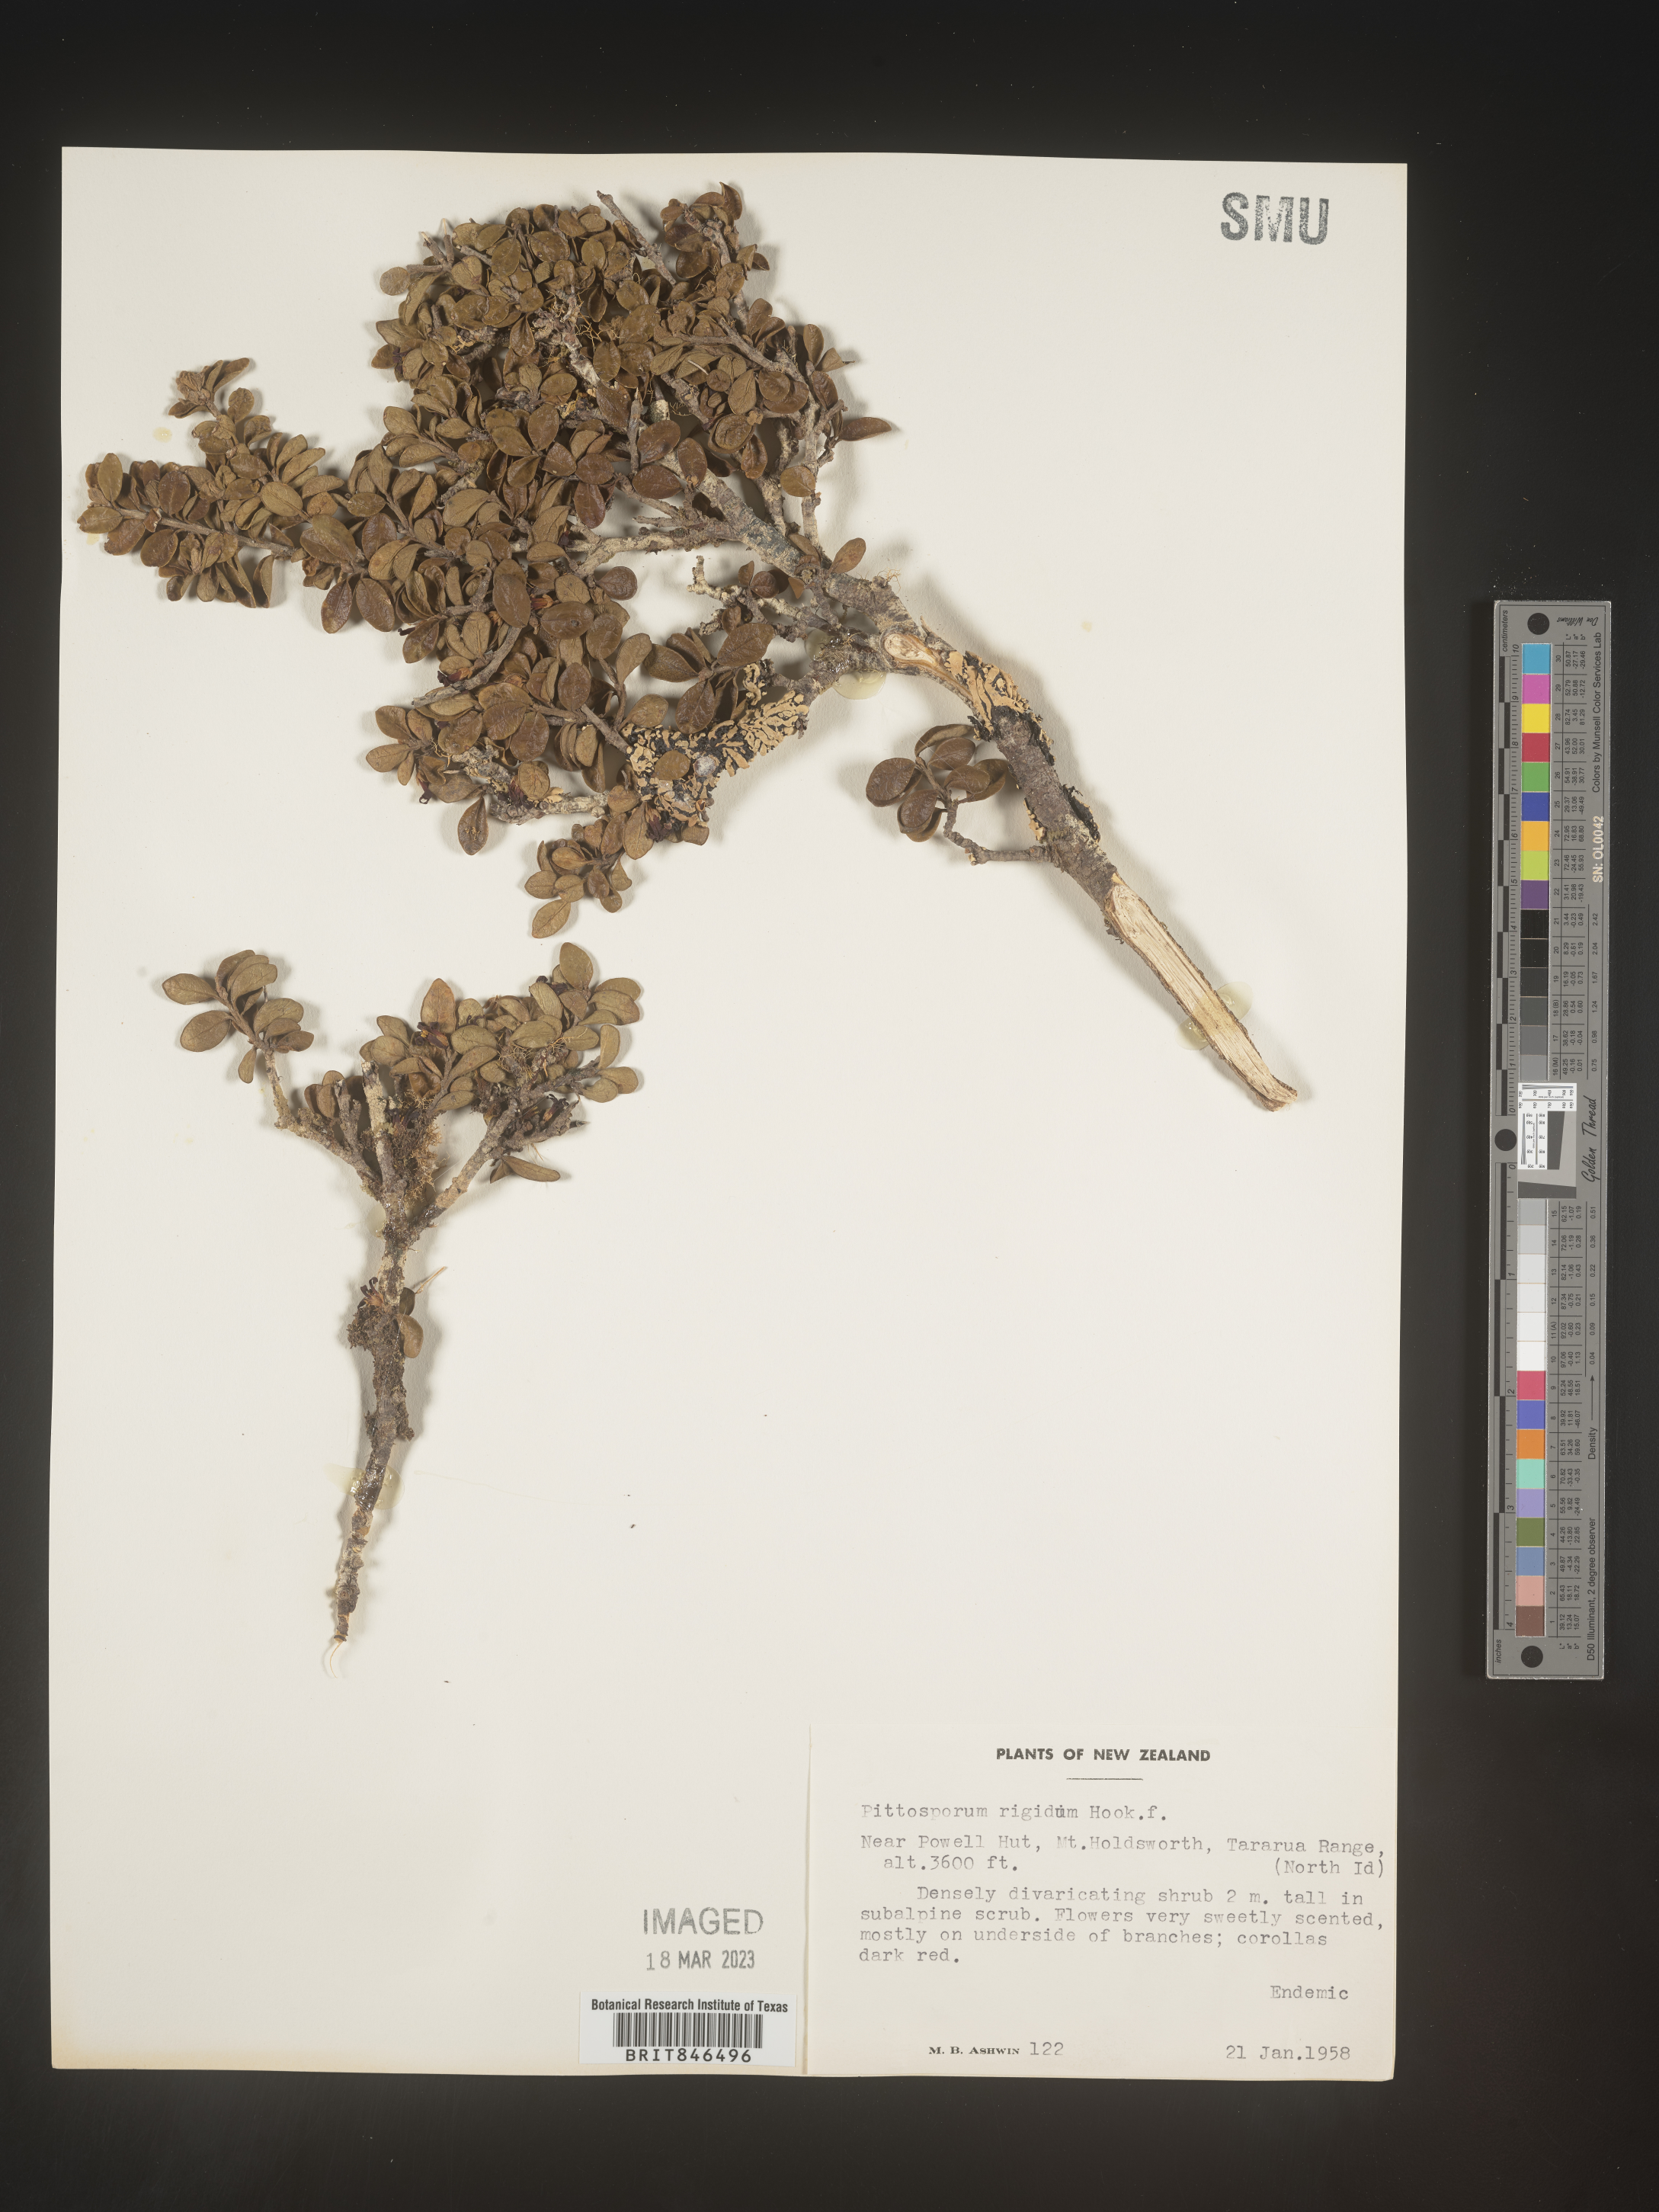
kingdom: Plantae
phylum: Tracheophyta
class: Magnoliopsida
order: Apiales
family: Pittosporaceae
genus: Pittosporum
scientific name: Pittosporum
